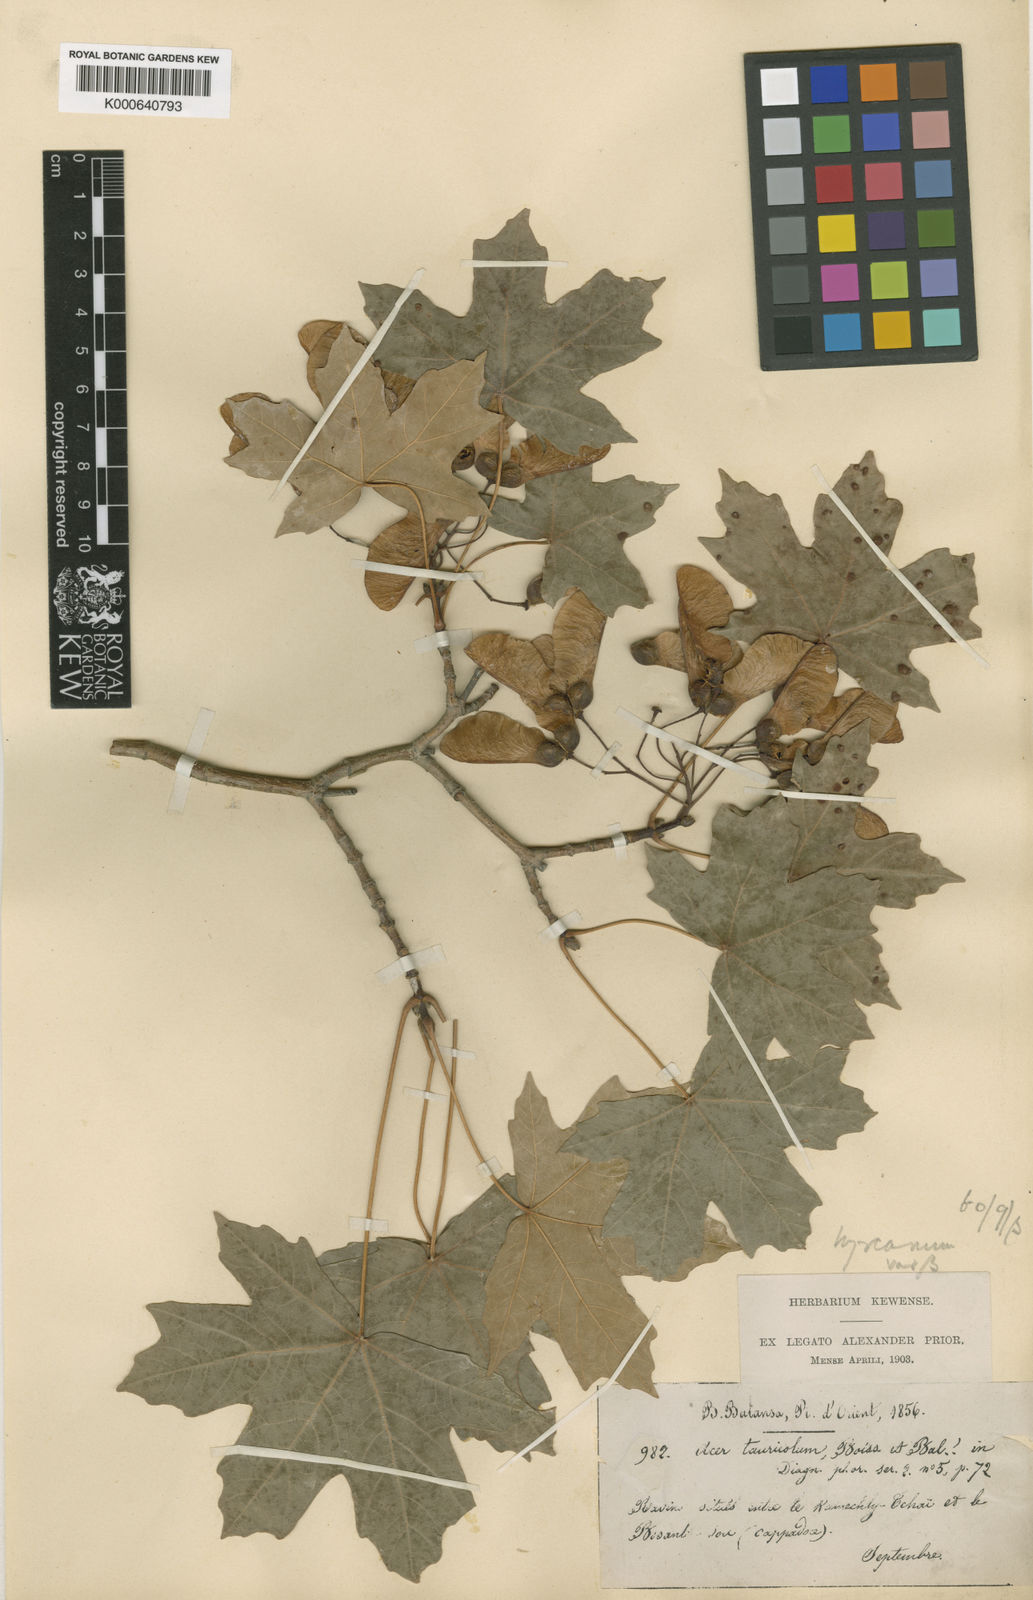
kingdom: Plantae
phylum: Tracheophyta
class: Magnoliopsida
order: Sapindales
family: Sapindaceae
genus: Acer
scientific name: Acer hyrcanum
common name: Balkan maple
